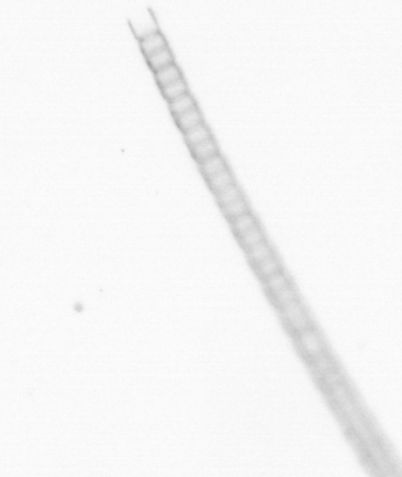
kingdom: Chromista
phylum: Ochrophyta
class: Bacillariophyceae
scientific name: Bacillariophyceae
